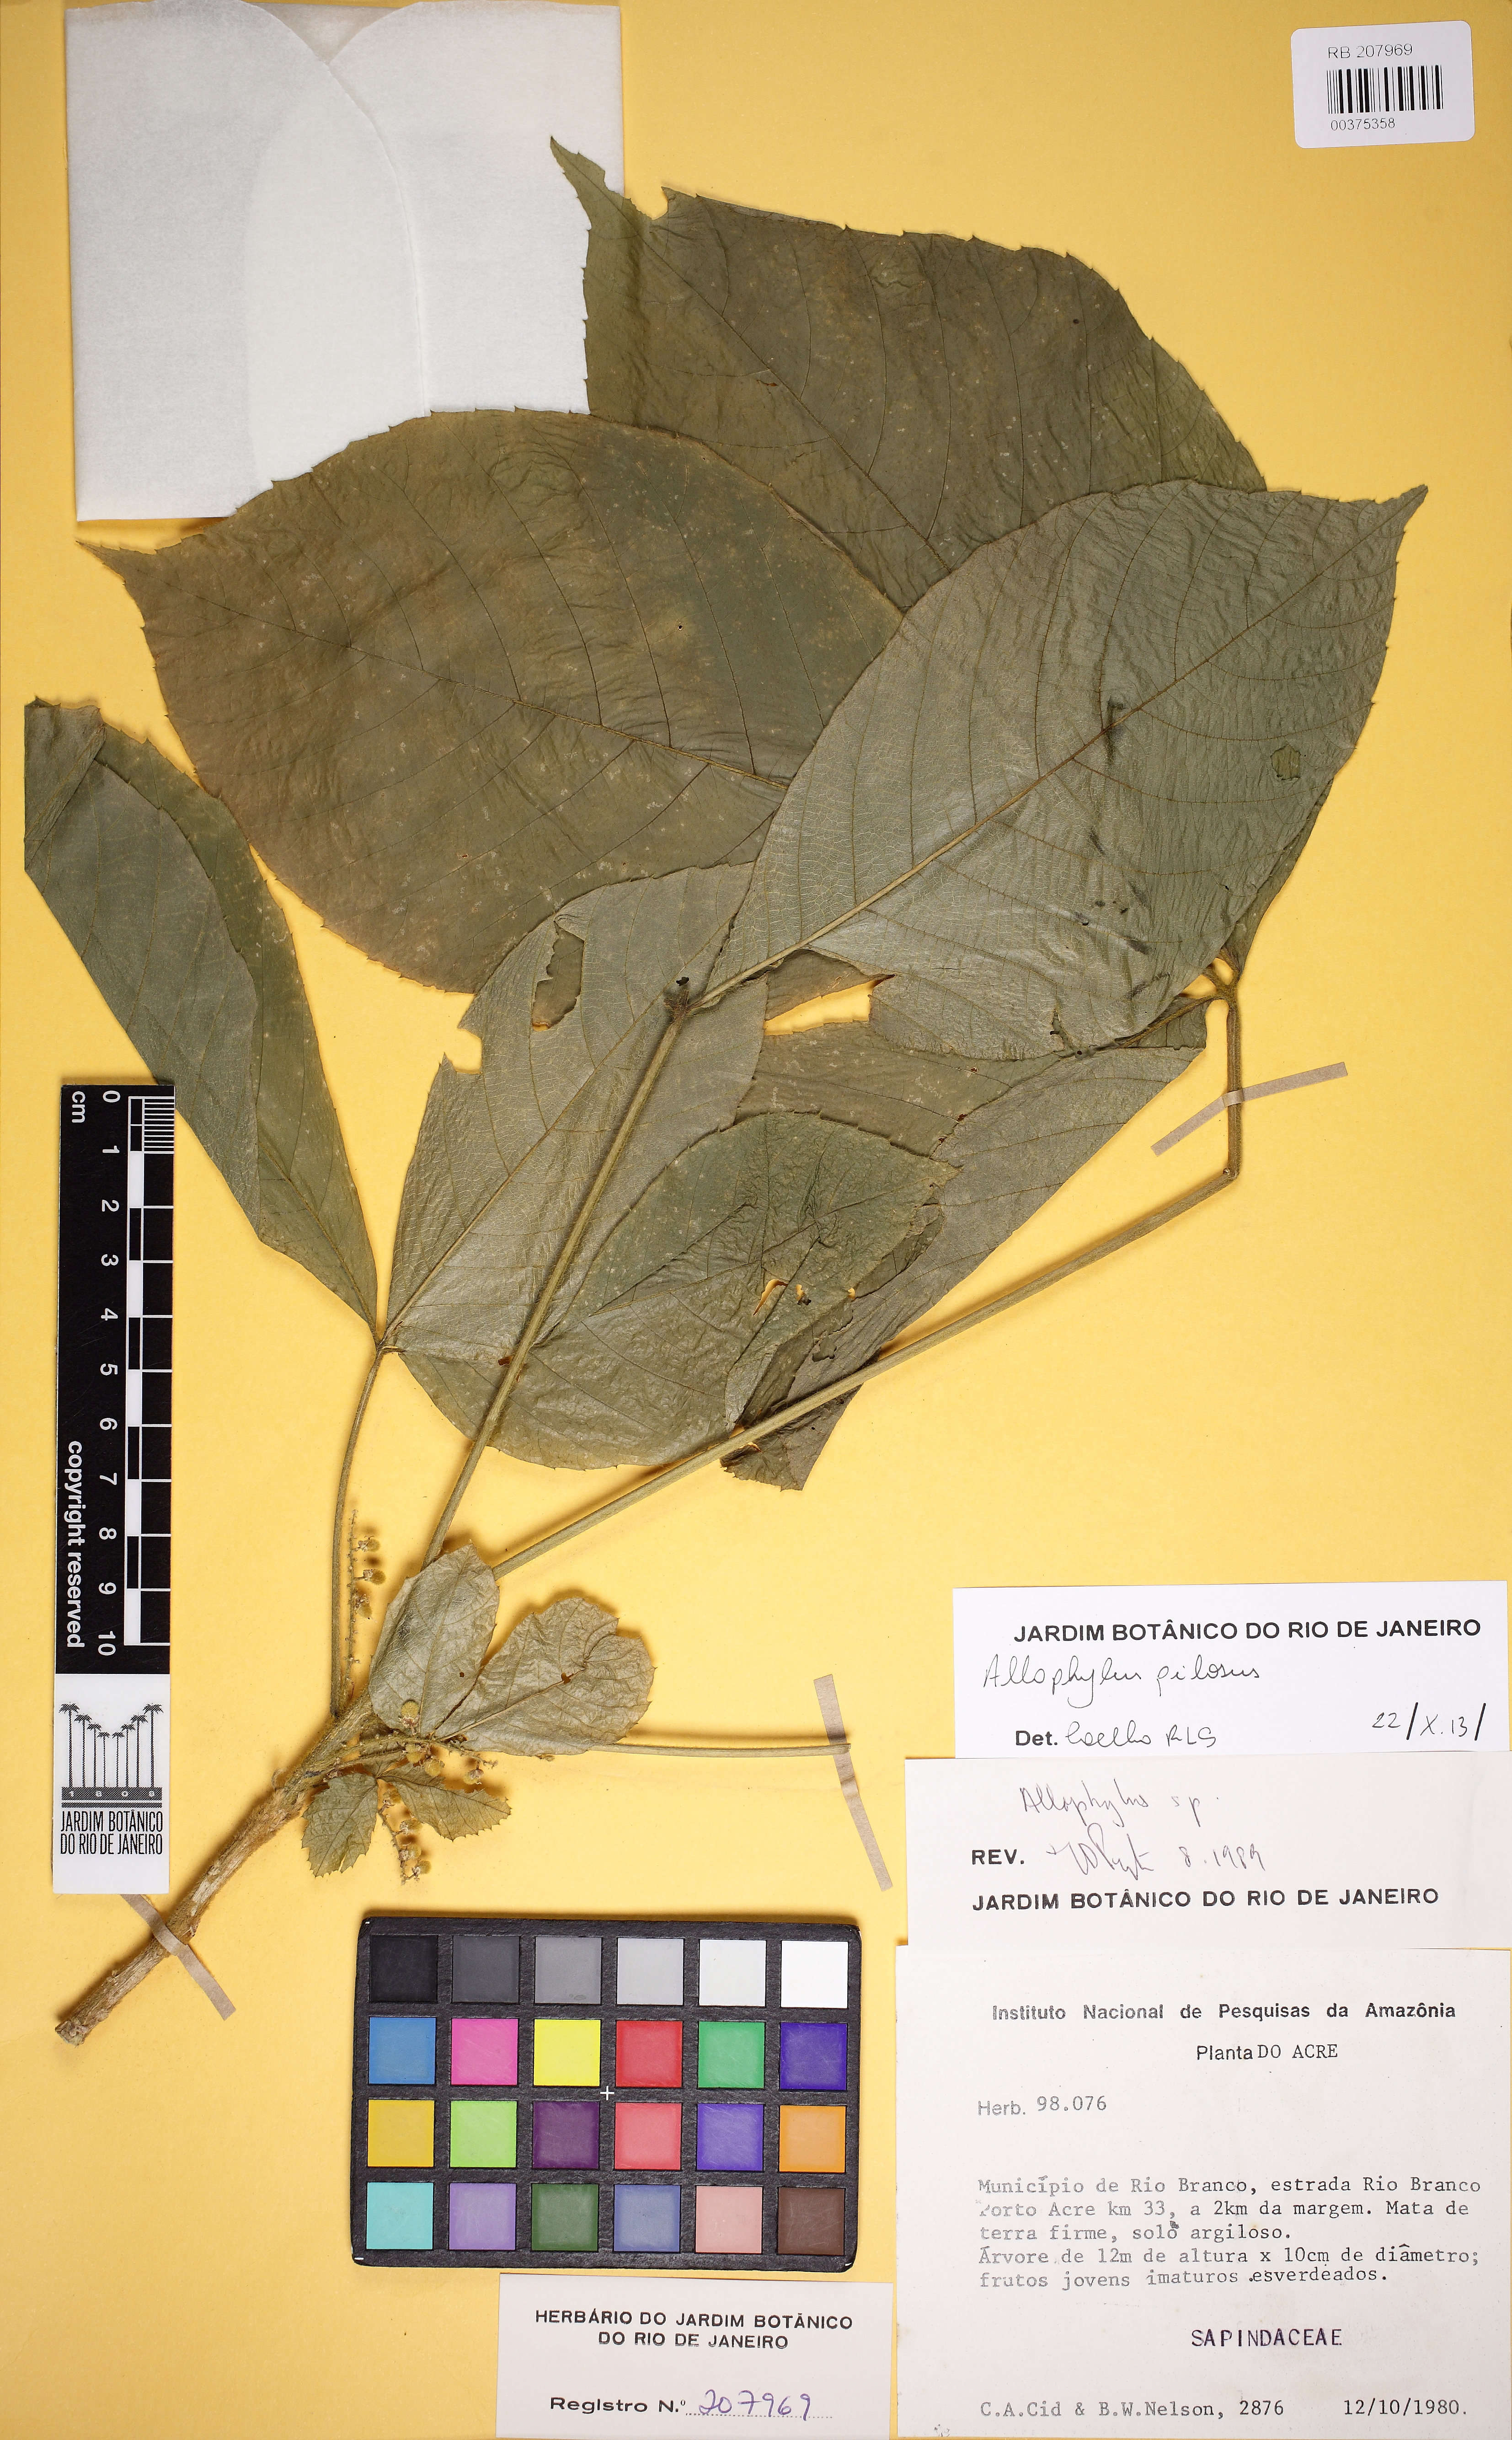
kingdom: Plantae
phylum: Tracheophyta
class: Magnoliopsida
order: Sapindales
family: Sapindaceae
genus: Allophylus
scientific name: Allophylus pilosus
